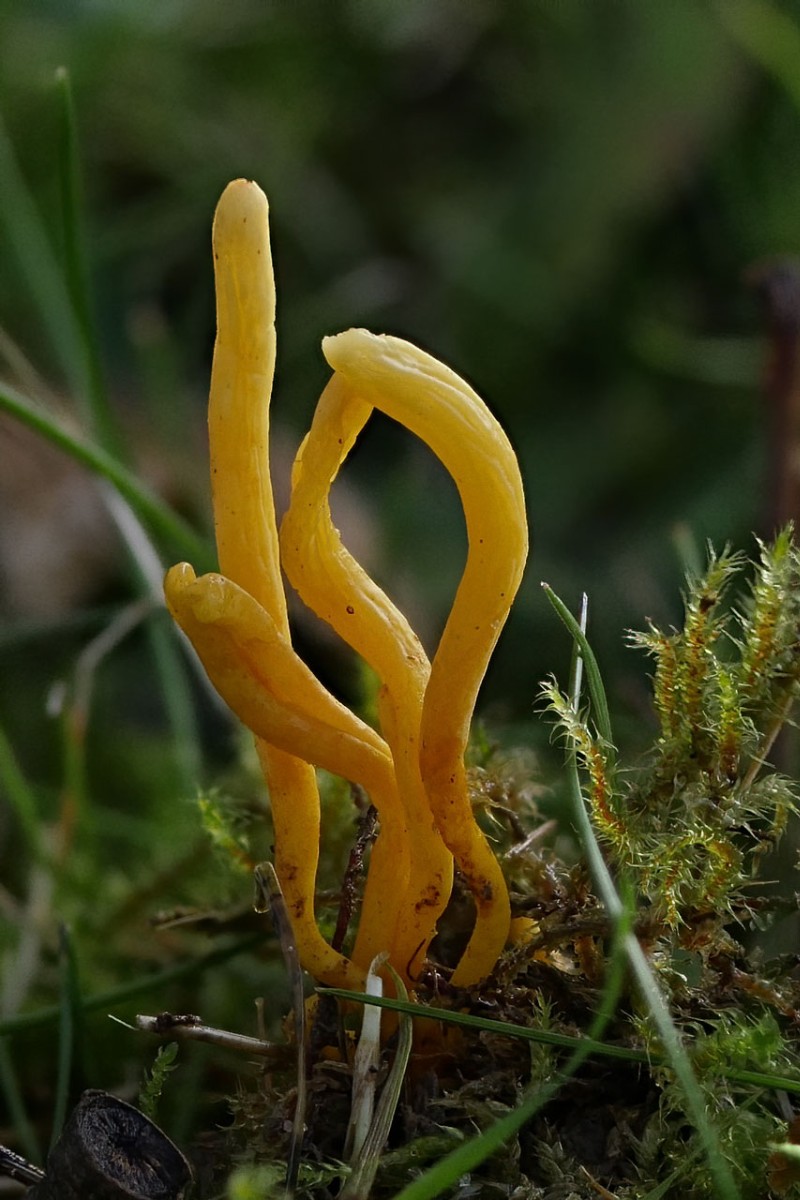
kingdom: Fungi
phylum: Basidiomycota
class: Agaricomycetes
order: Agaricales
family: Clavariaceae
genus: Clavulinopsis
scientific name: Clavulinopsis
